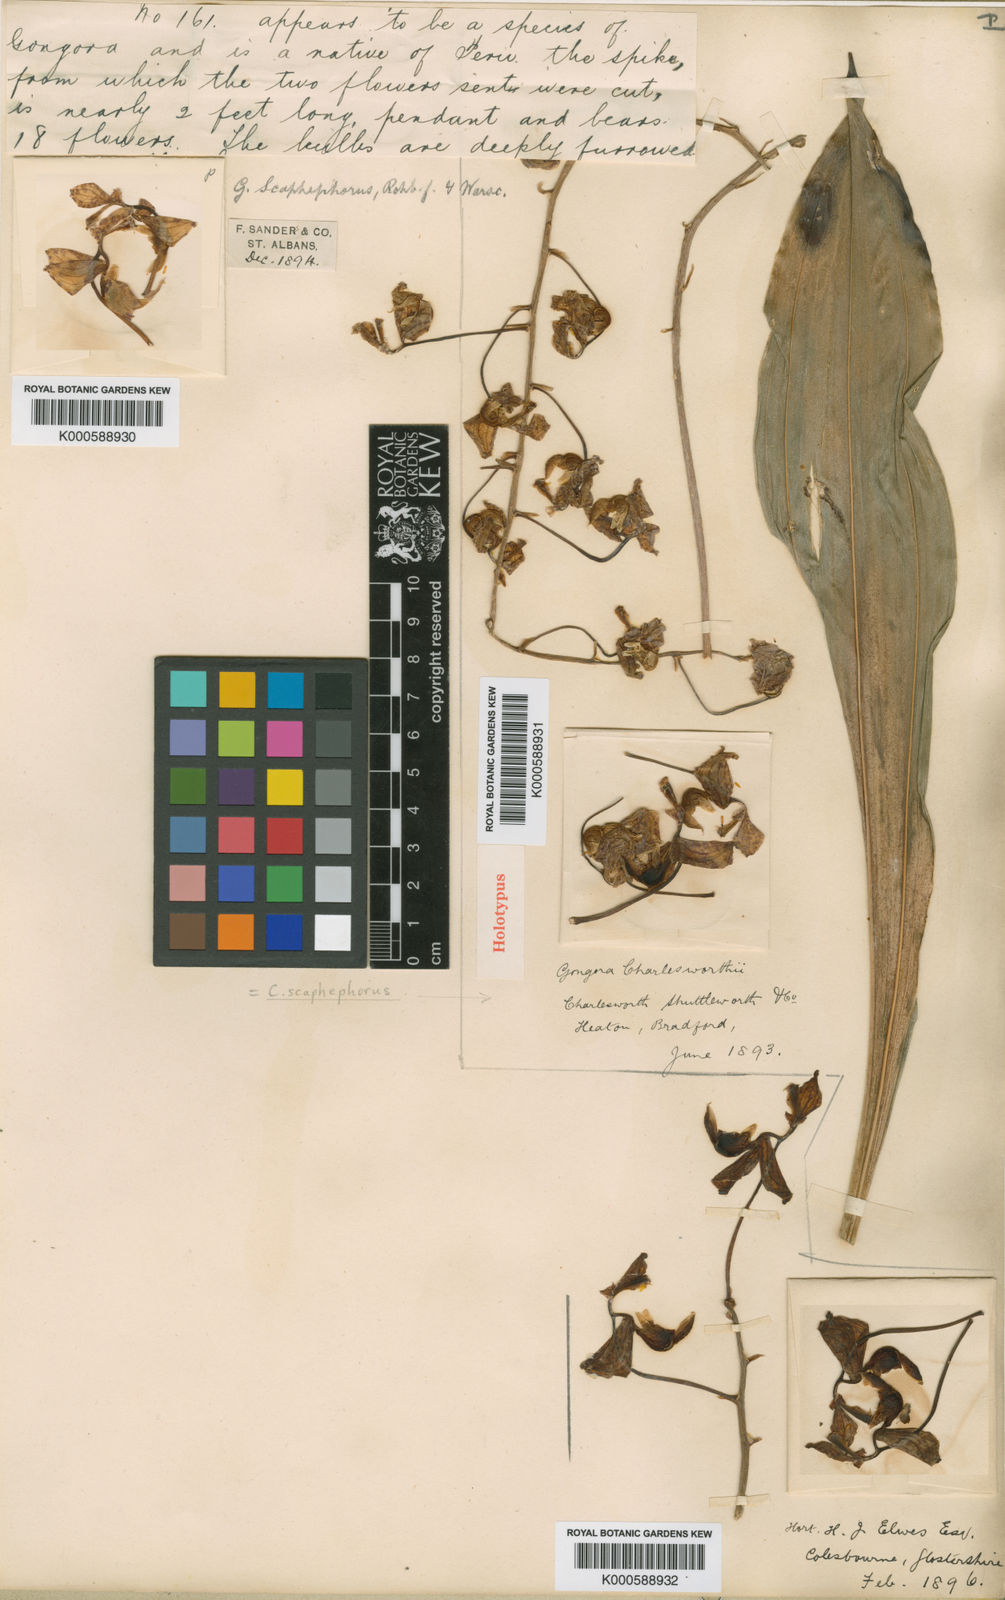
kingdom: Plantae
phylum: Tracheophyta
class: Liliopsida
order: Asparagales
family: Orchidaceae
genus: Gongora
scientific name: Gongora scaphephorus
